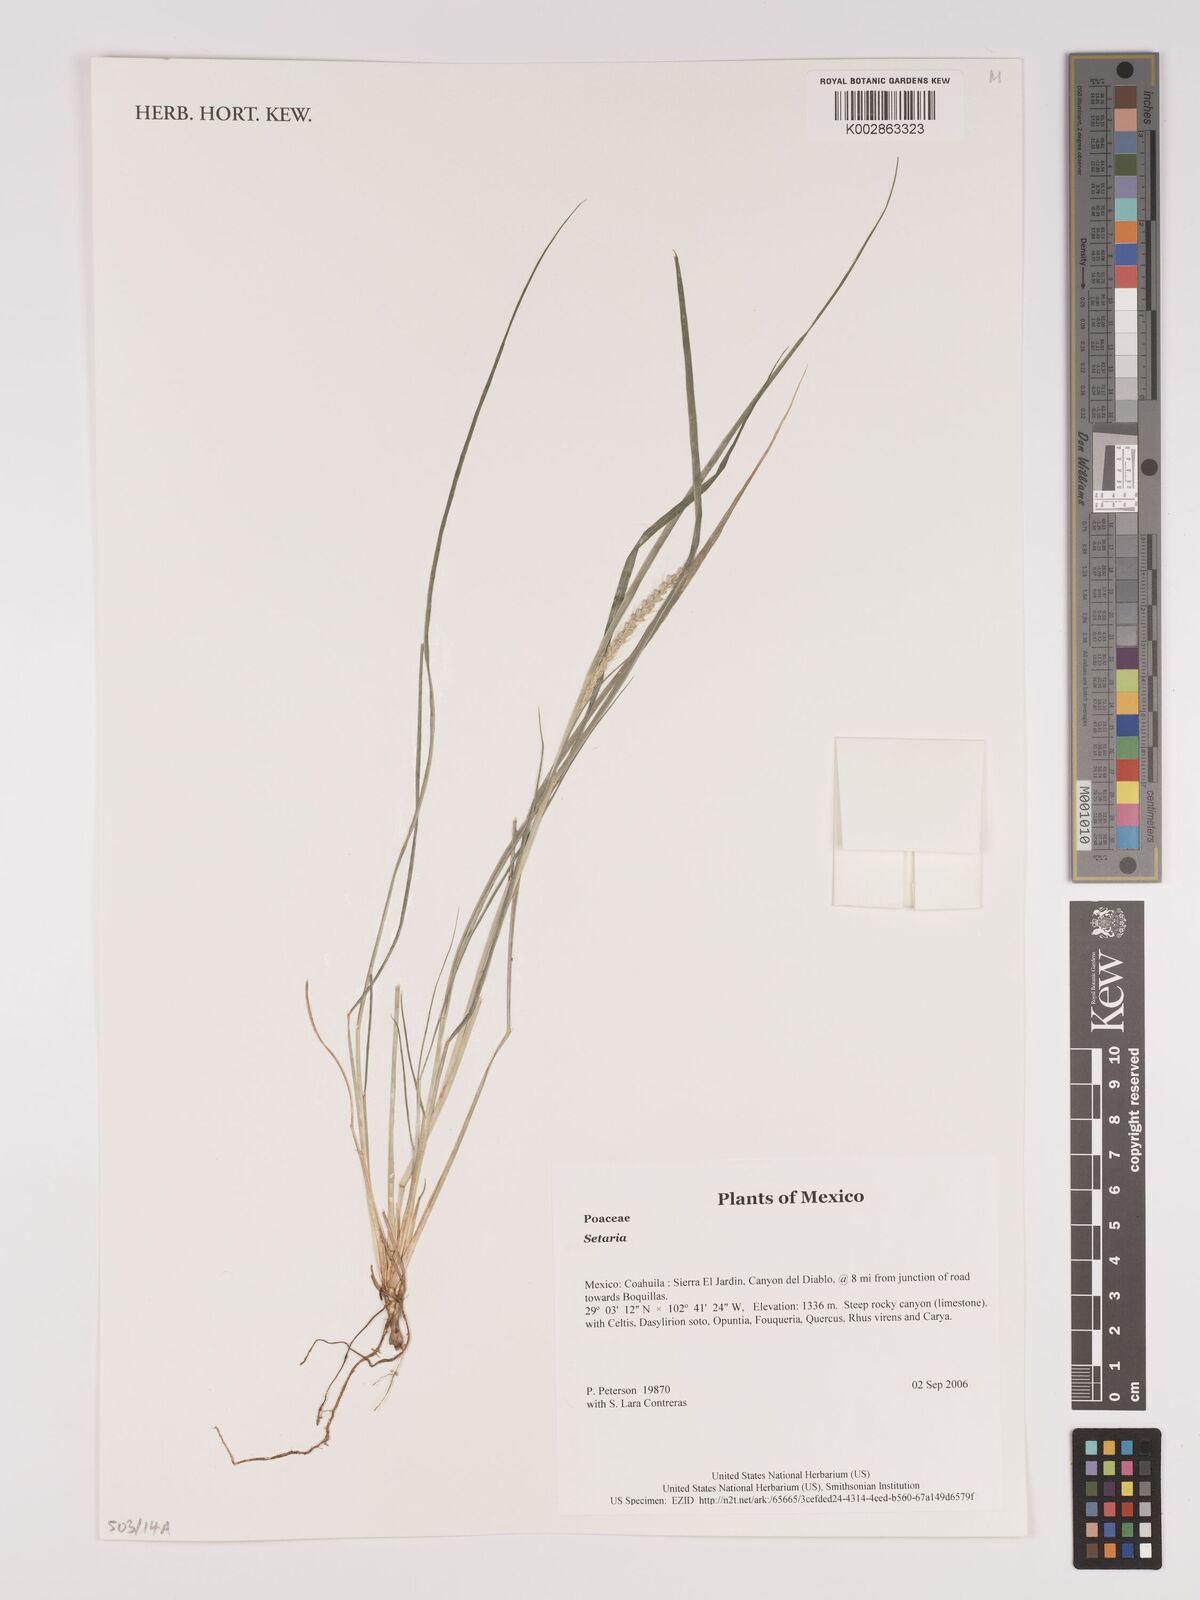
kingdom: Plantae
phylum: Tracheophyta
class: Liliopsida
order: Poales
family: Poaceae
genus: Setaria
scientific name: Setaria
